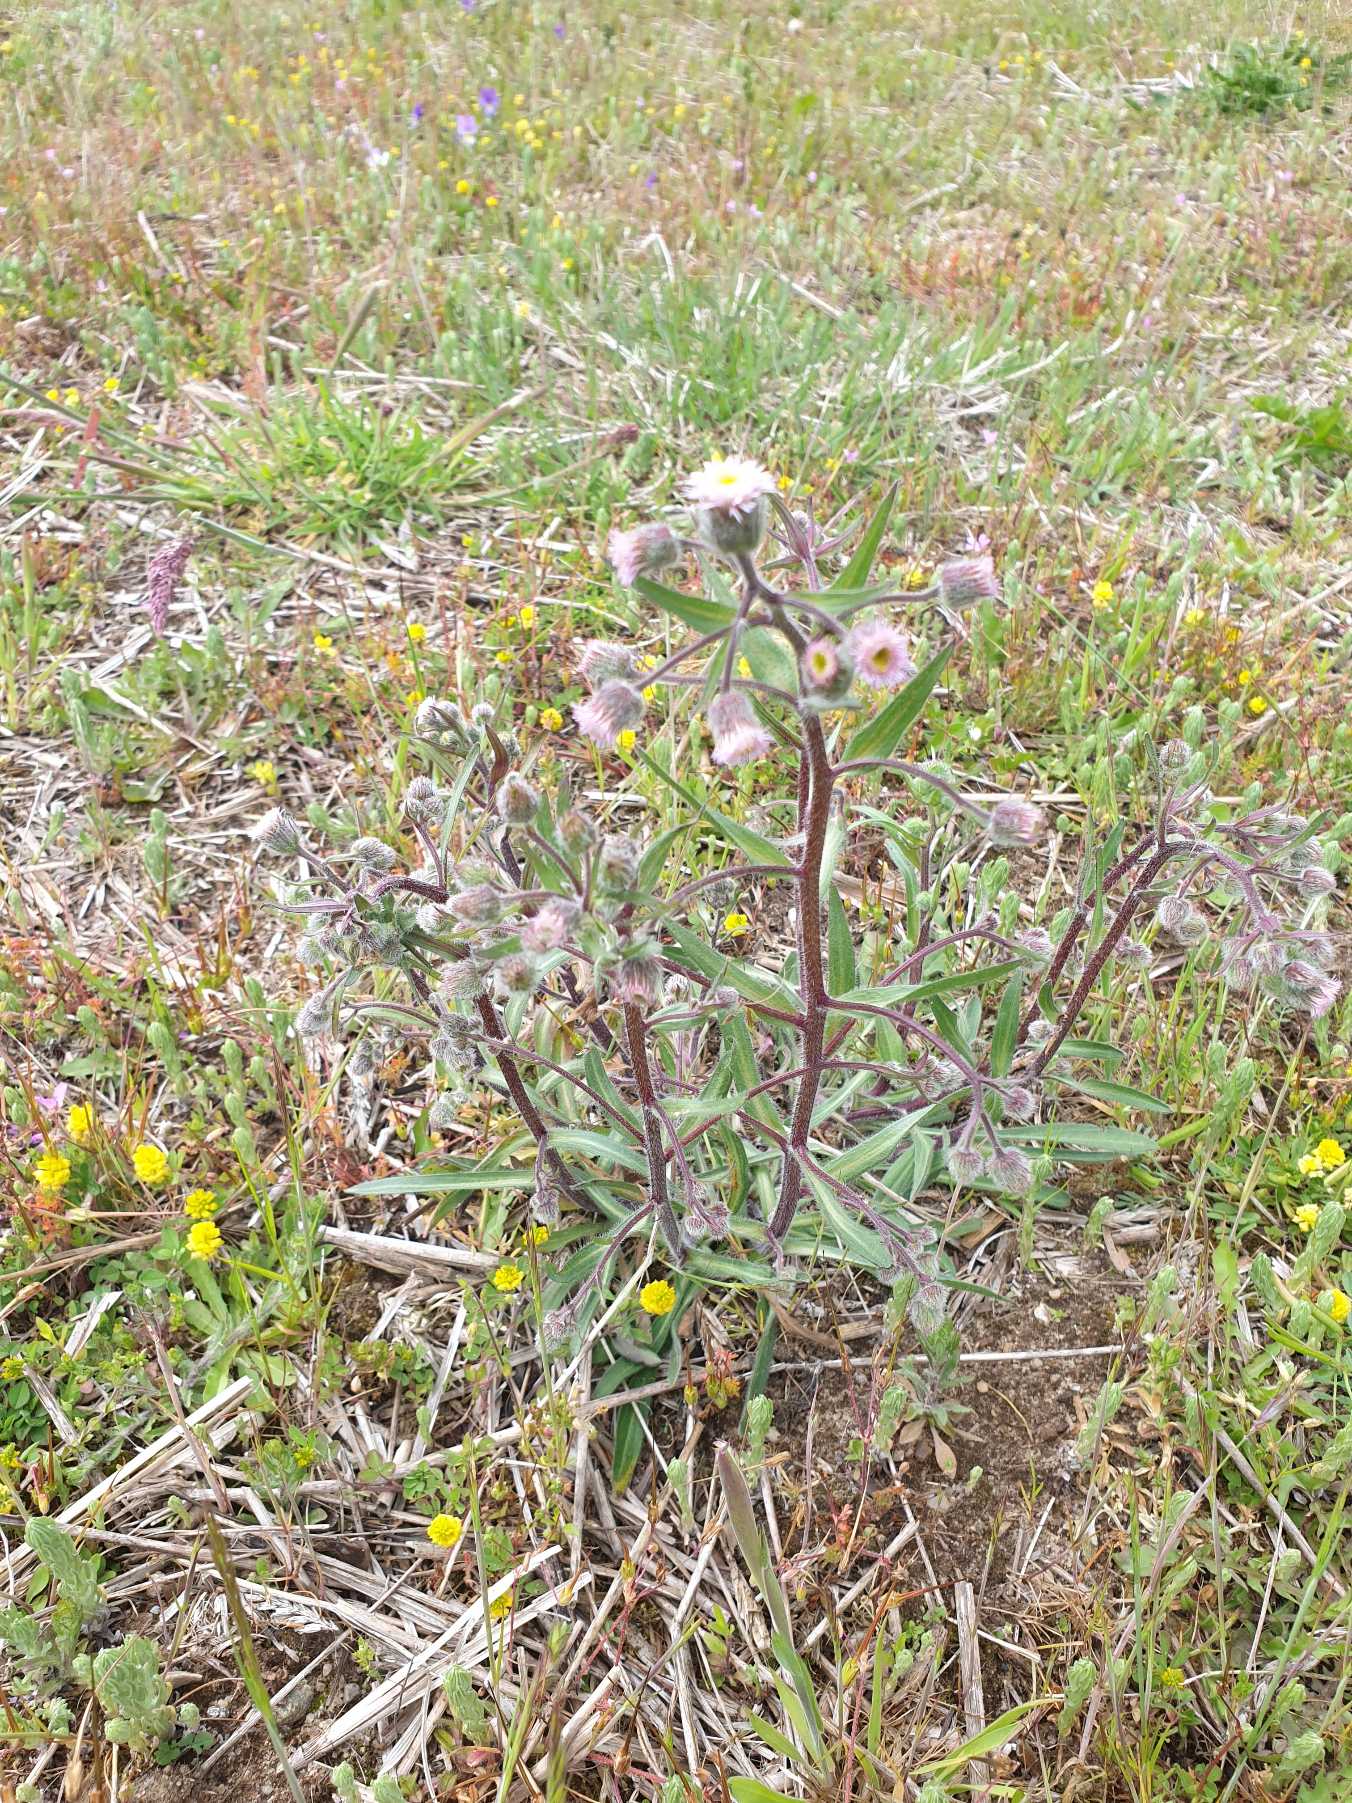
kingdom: Plantae
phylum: Tracheophyta
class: Magnoliopsida
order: Asterales
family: Asteraceae
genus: Erigeron
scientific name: Erigeron acris
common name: Bitter bakkestjerne
